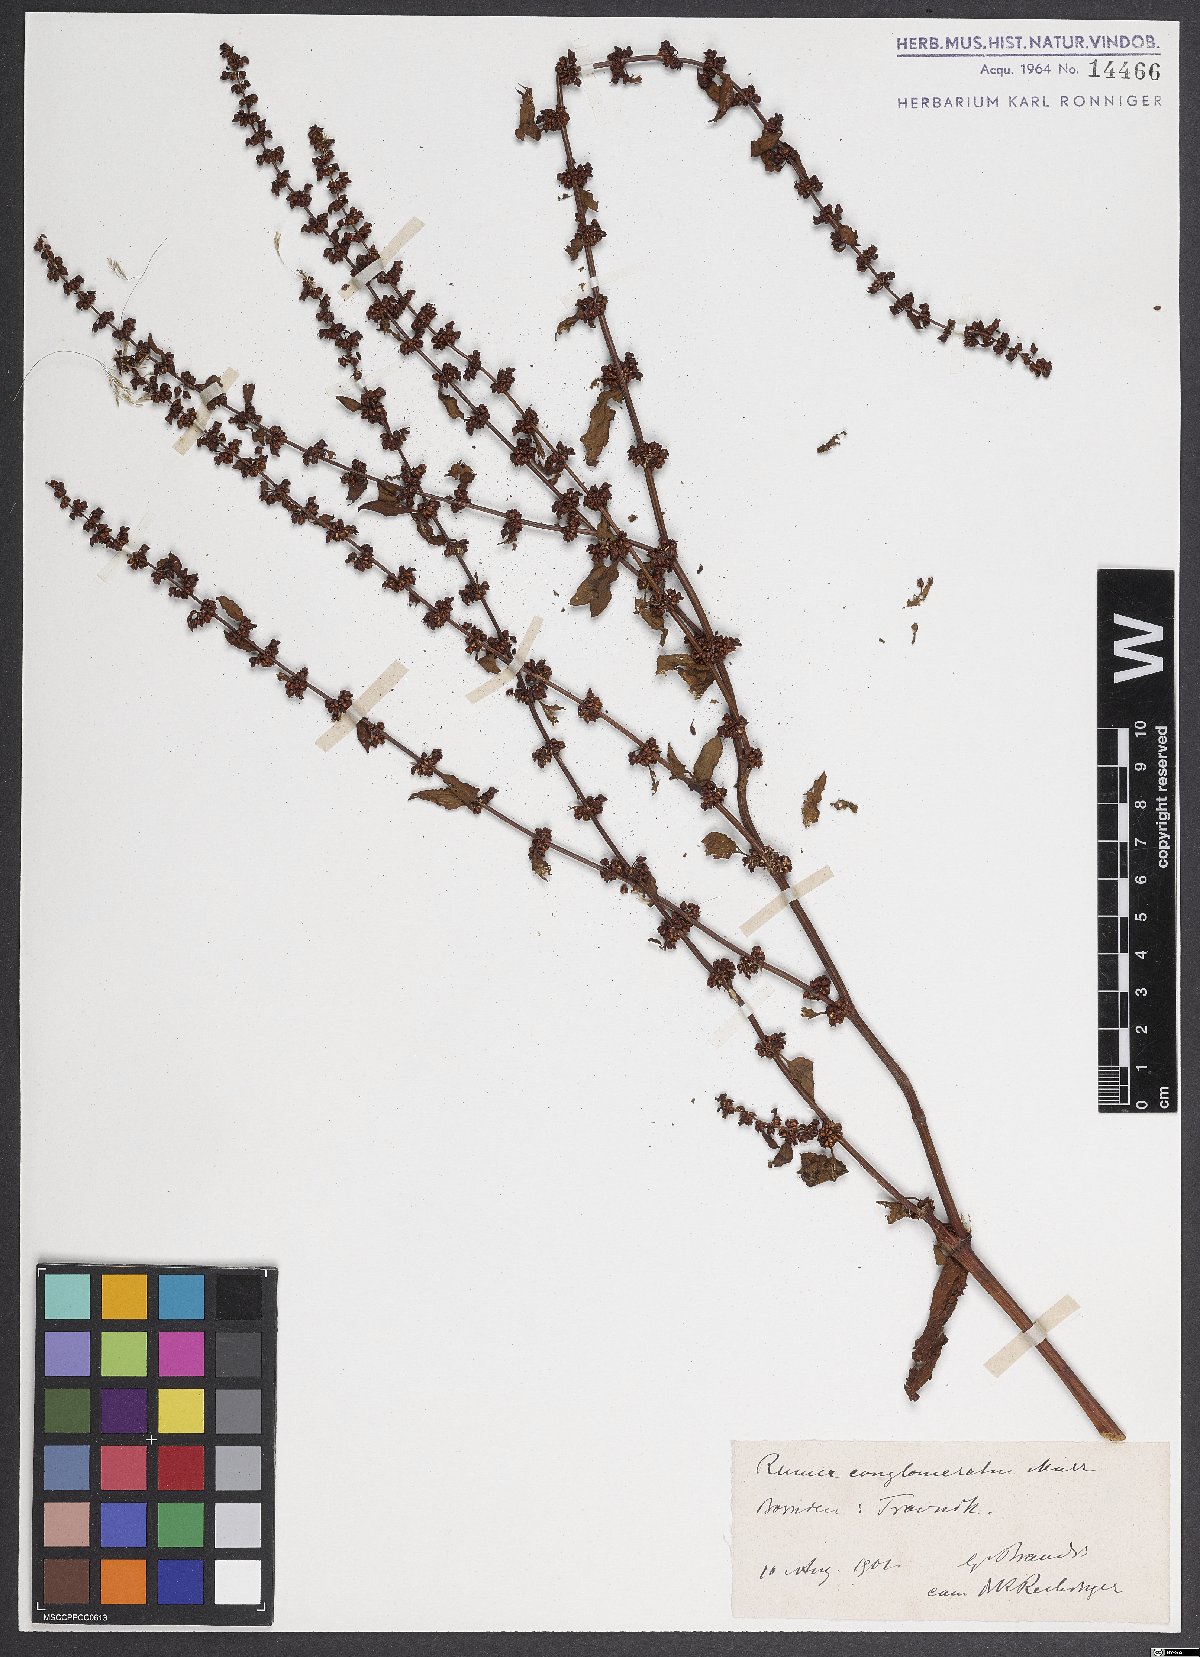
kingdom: Plantae
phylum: Tracheophyta
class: Magnoliopsida
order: Caryophyllales
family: Polygonaceae
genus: Rumex
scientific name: Rumex conglomeratus
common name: Clustered dock
